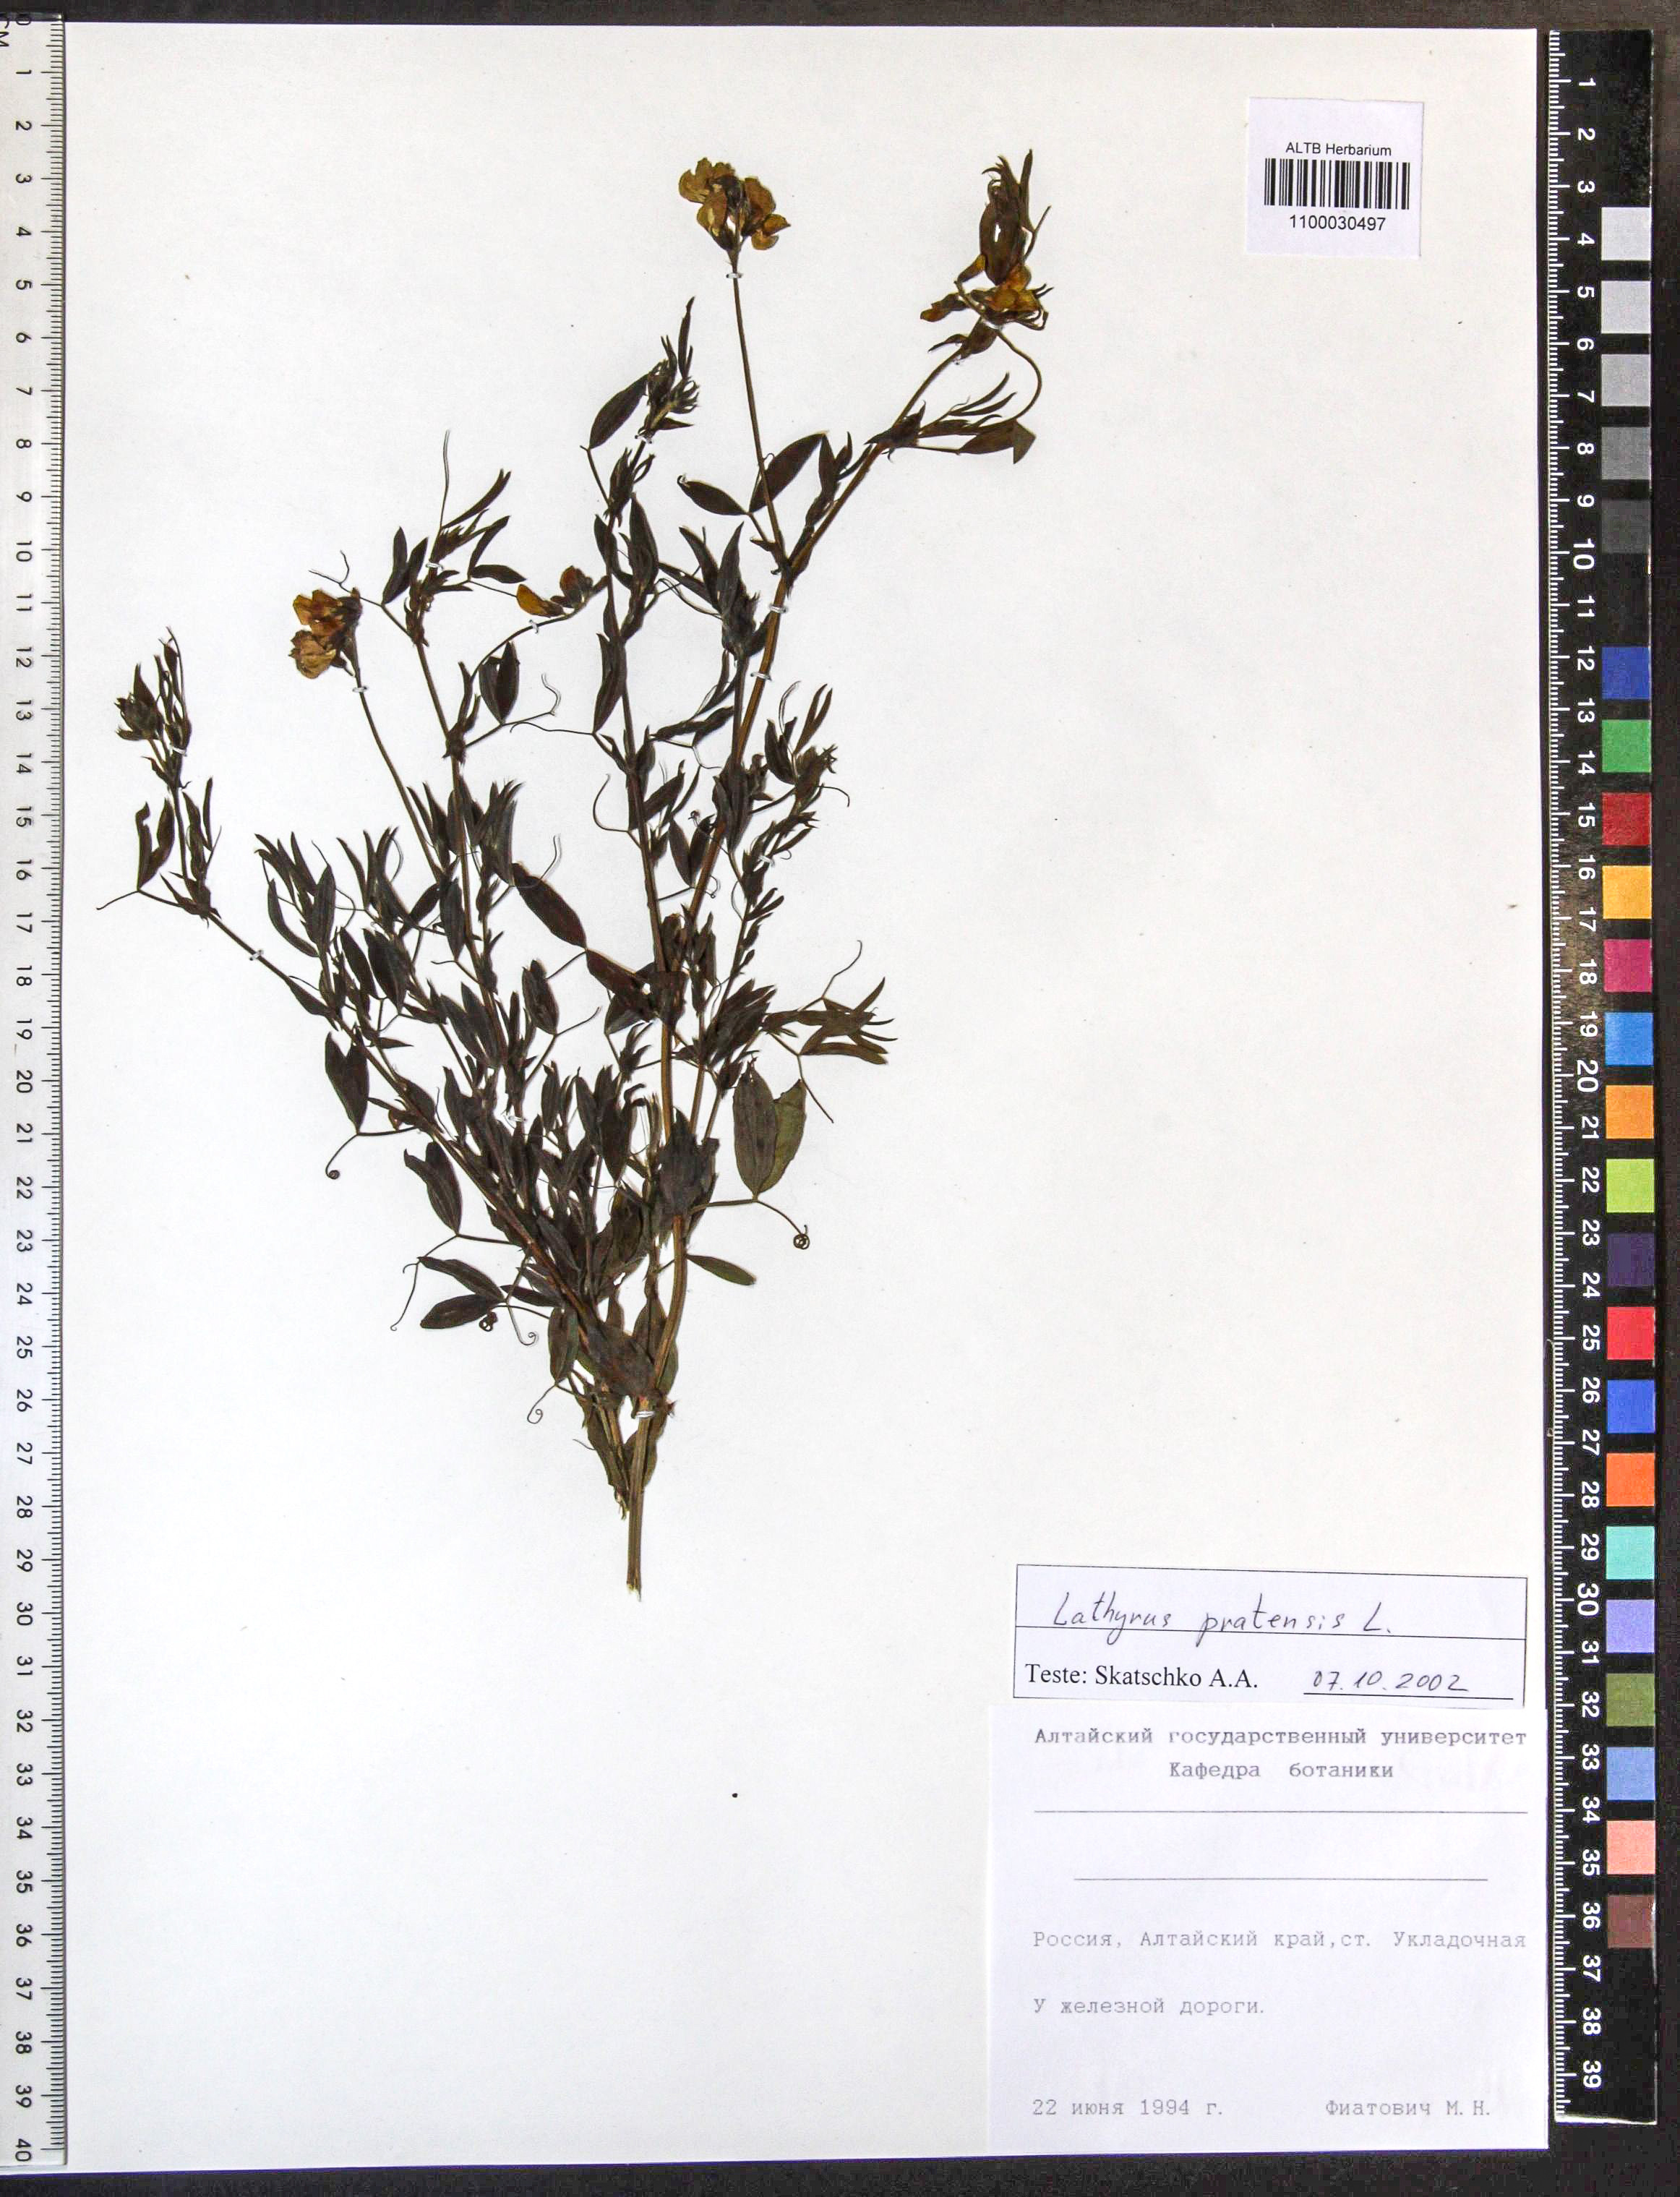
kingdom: Plantae
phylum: Tracheophyta
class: Magnoliopsida
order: Fabales
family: Fabaceae
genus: Lathyrus
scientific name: Lathyrus pratensis
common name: Meadow vetchling
